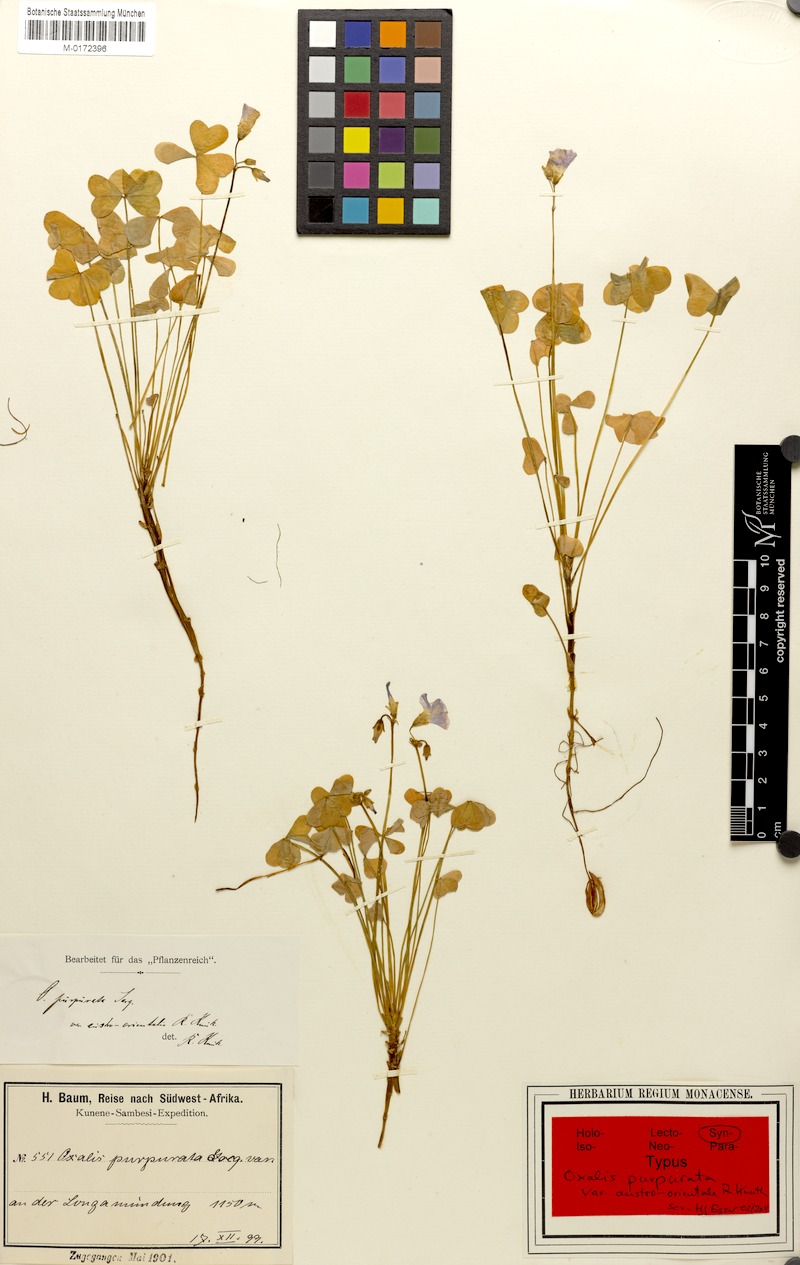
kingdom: Plantae
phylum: Tracheophyta
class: Magnoliopsida
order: Oxalidales
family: Oxalidaceae
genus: Oxalis
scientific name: Oxalis purpurata
